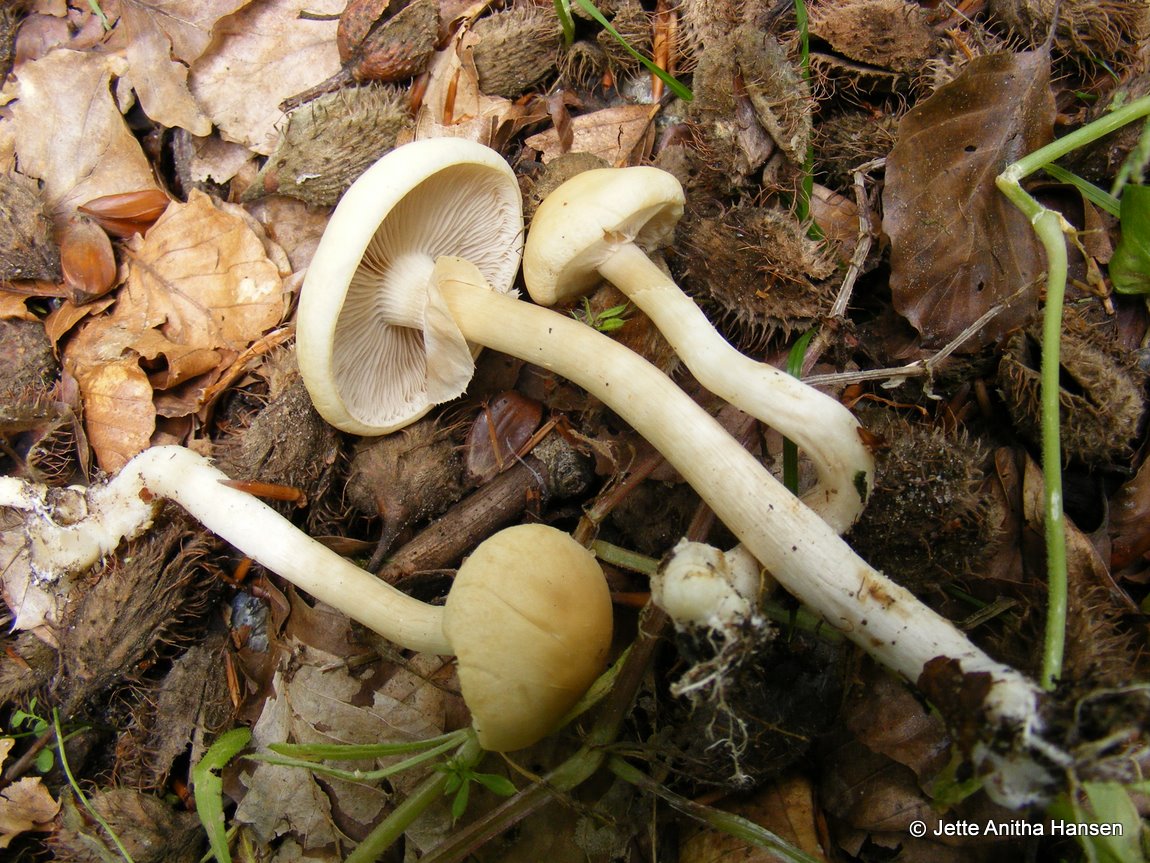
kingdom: Fungi
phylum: Basidiomycota
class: Agaricomycetes
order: Agaricales
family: Strophariaceae
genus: Agrocybe
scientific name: Agrocybe praecox
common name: tidlig agerhat
